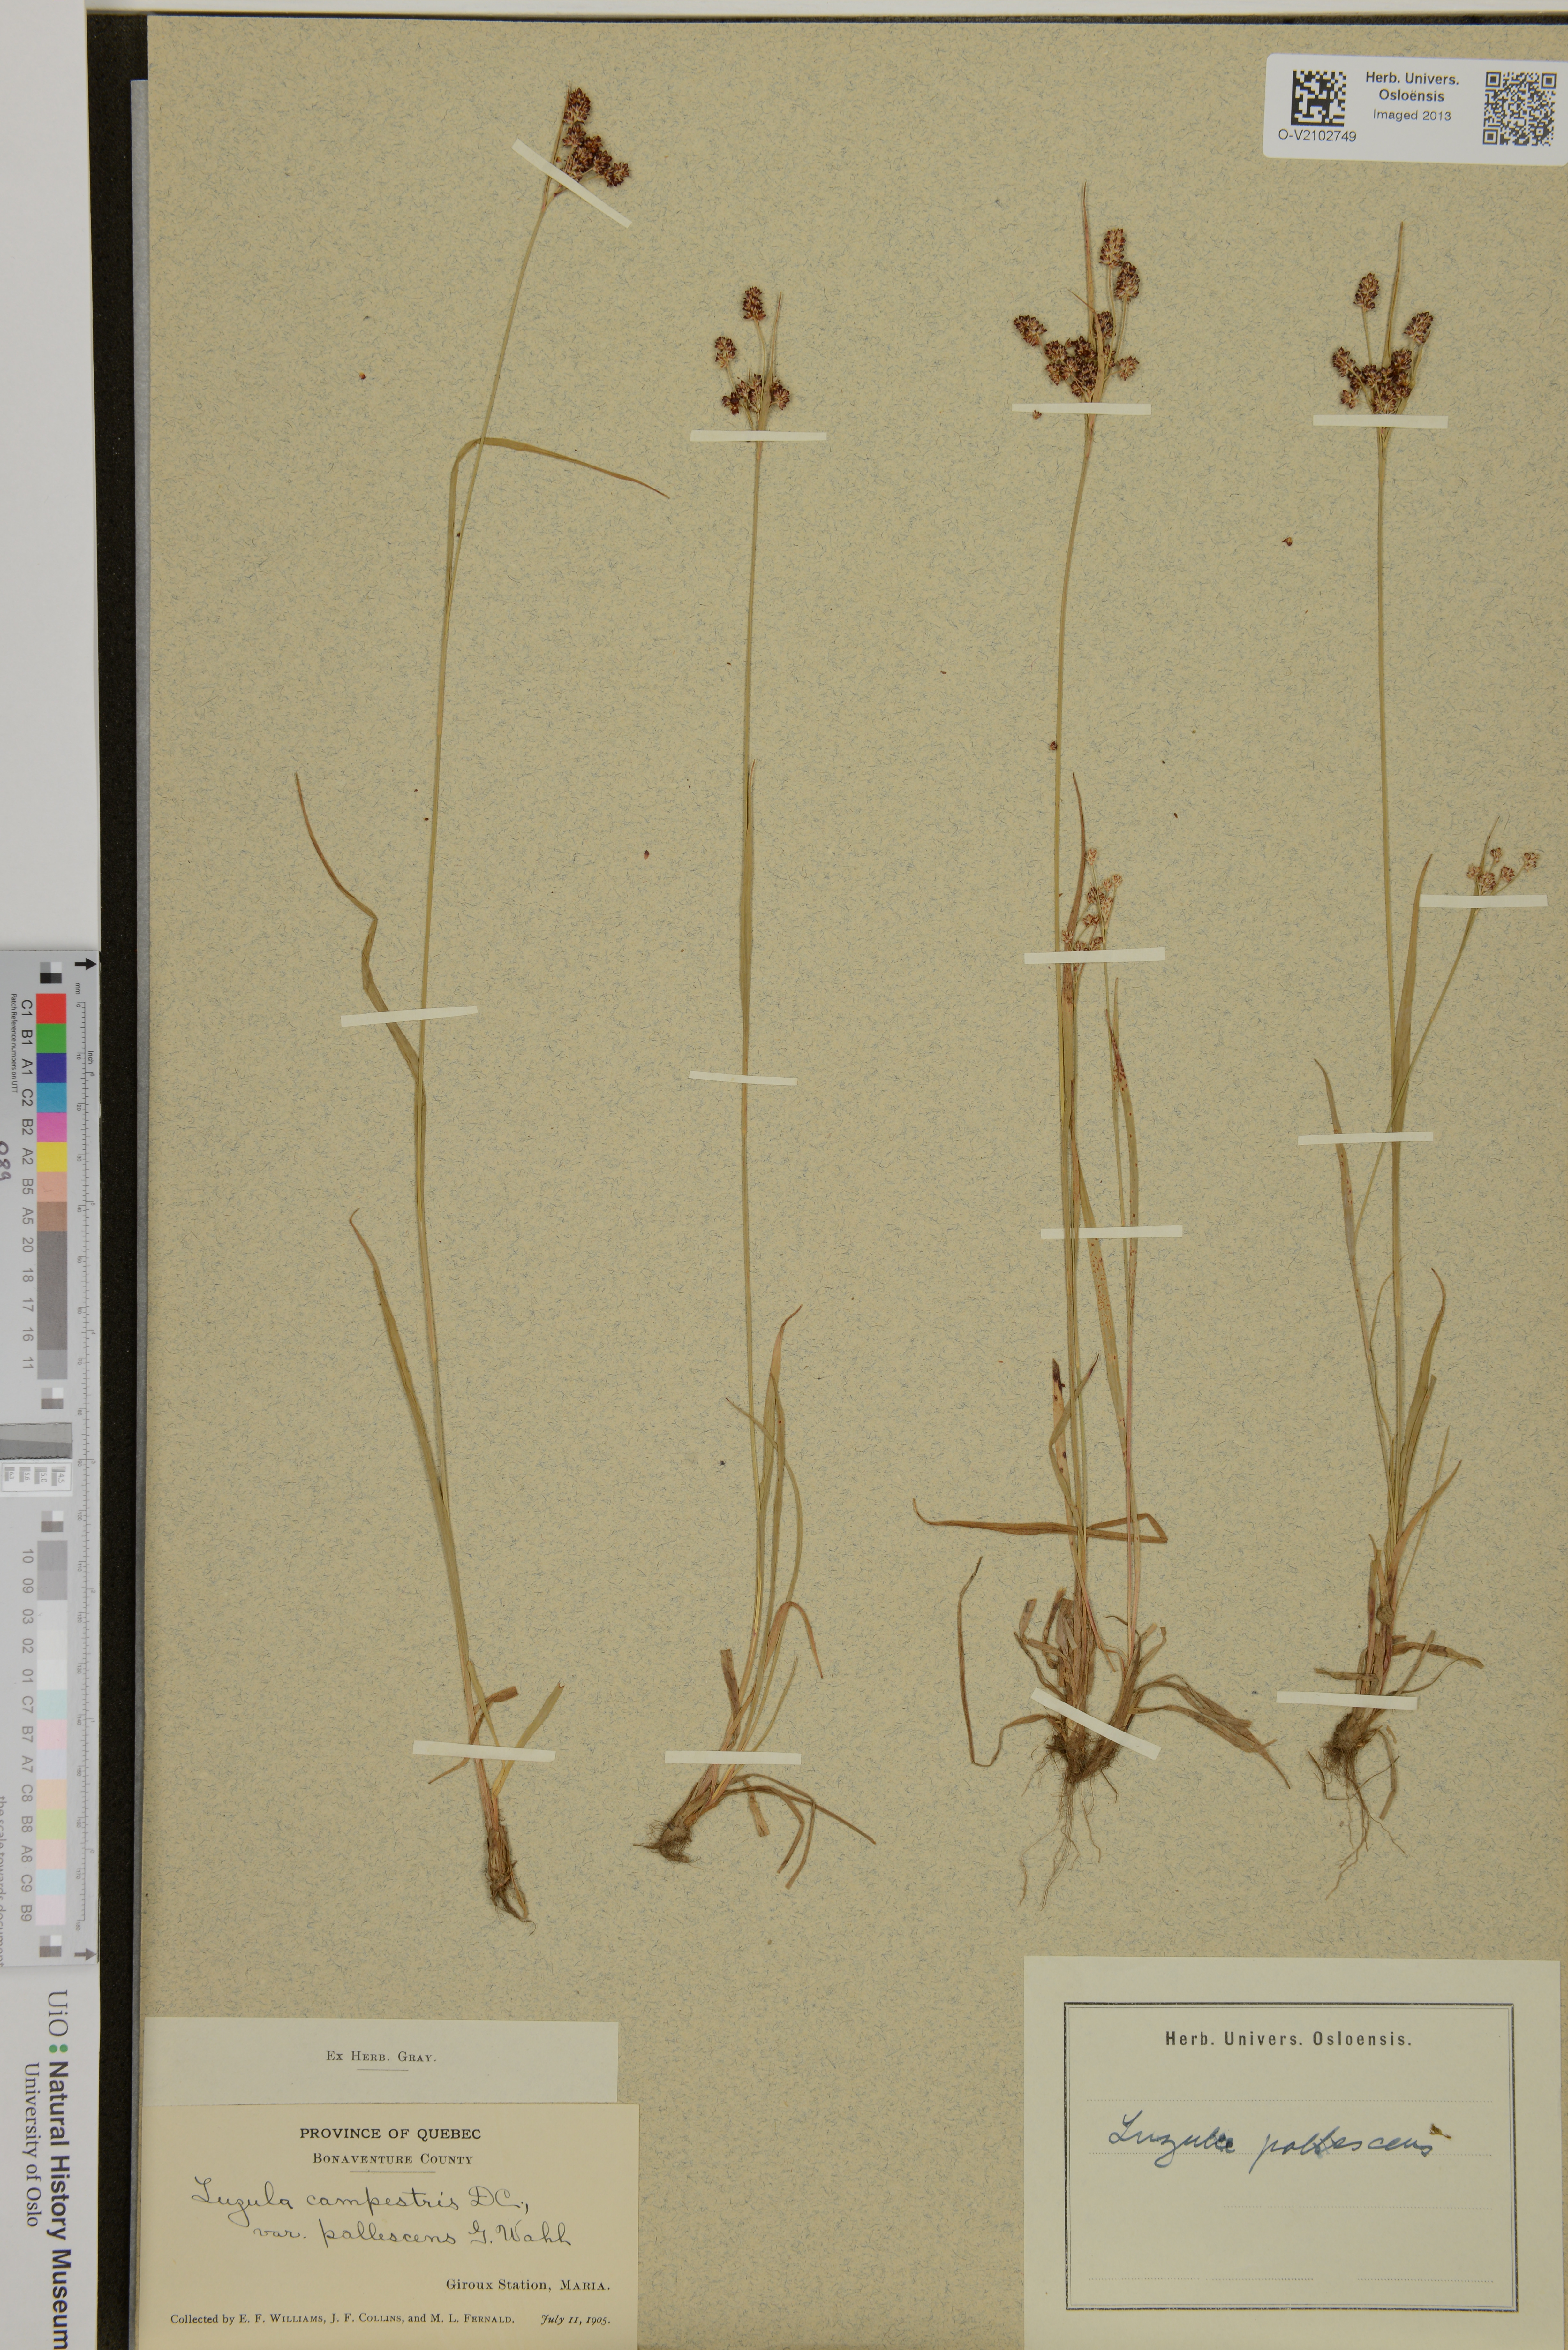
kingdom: Plantae
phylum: Tracheophyta
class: Liliopsida
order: Poales
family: Juncaceae
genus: Luzula
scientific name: Luzula pallescens
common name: Fen wood-rush
